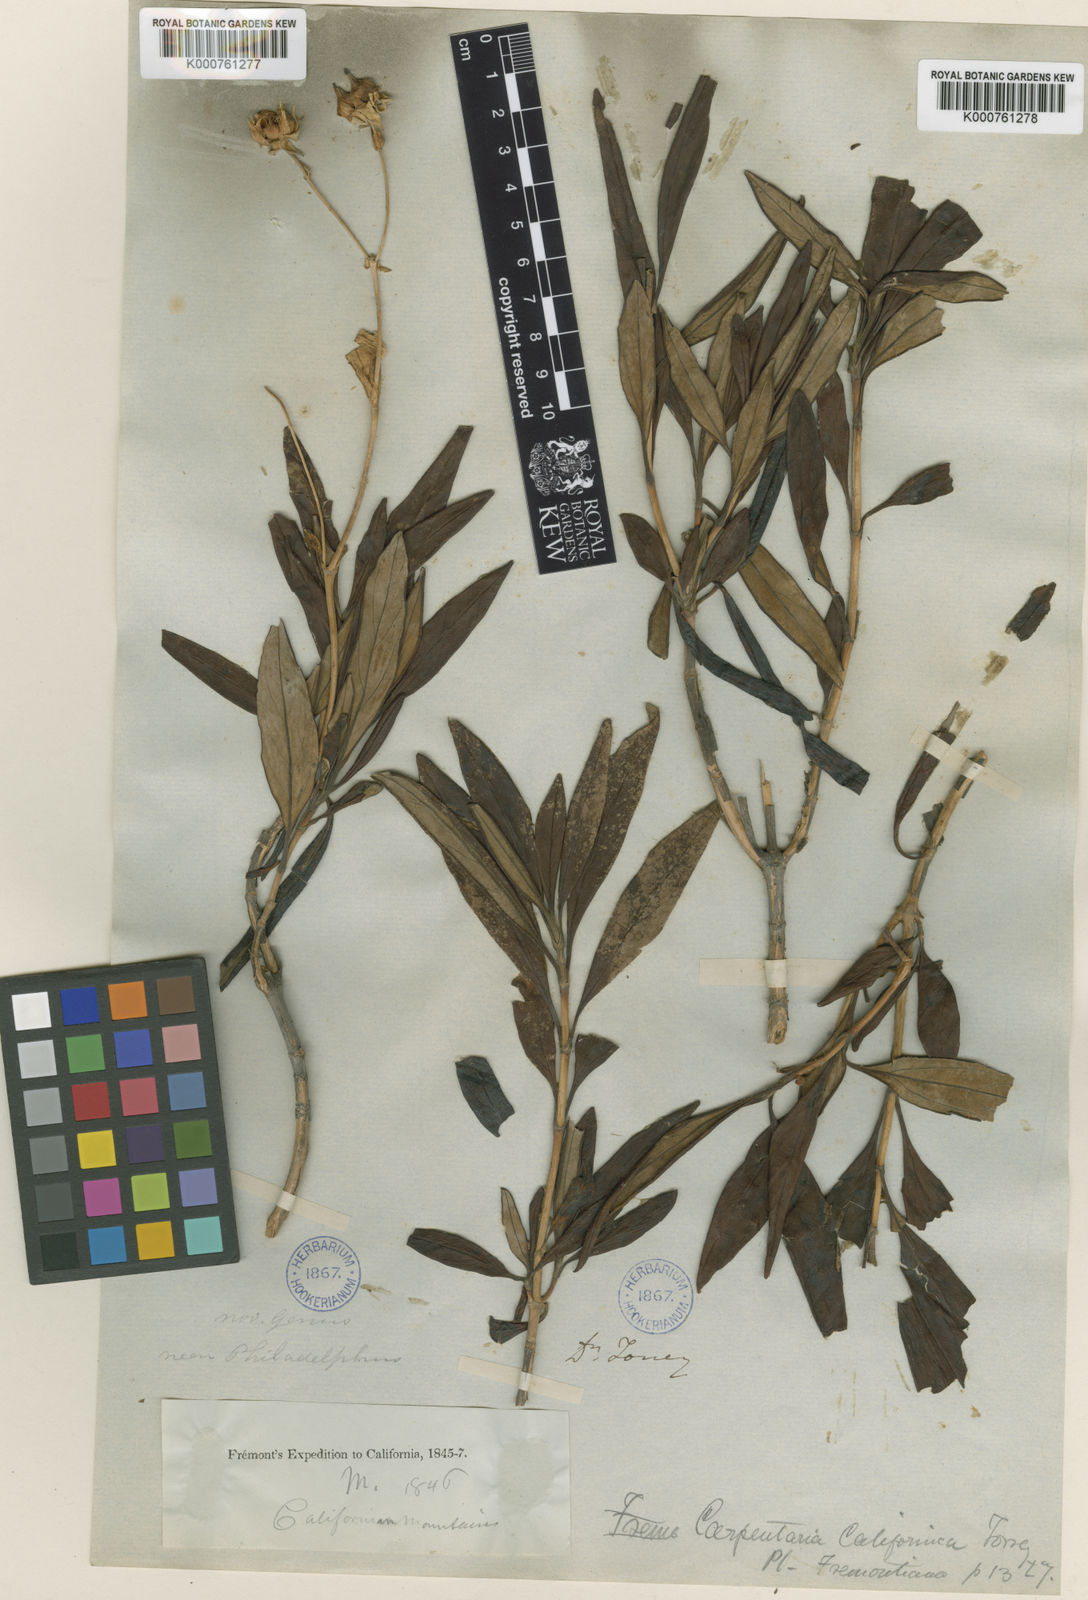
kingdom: Plantae
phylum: Tracheophyta
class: Magnoliopsida
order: Cornales
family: Hydrangeaceae
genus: Carpenteria
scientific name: Carpenteria californica
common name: Tree-anomone
